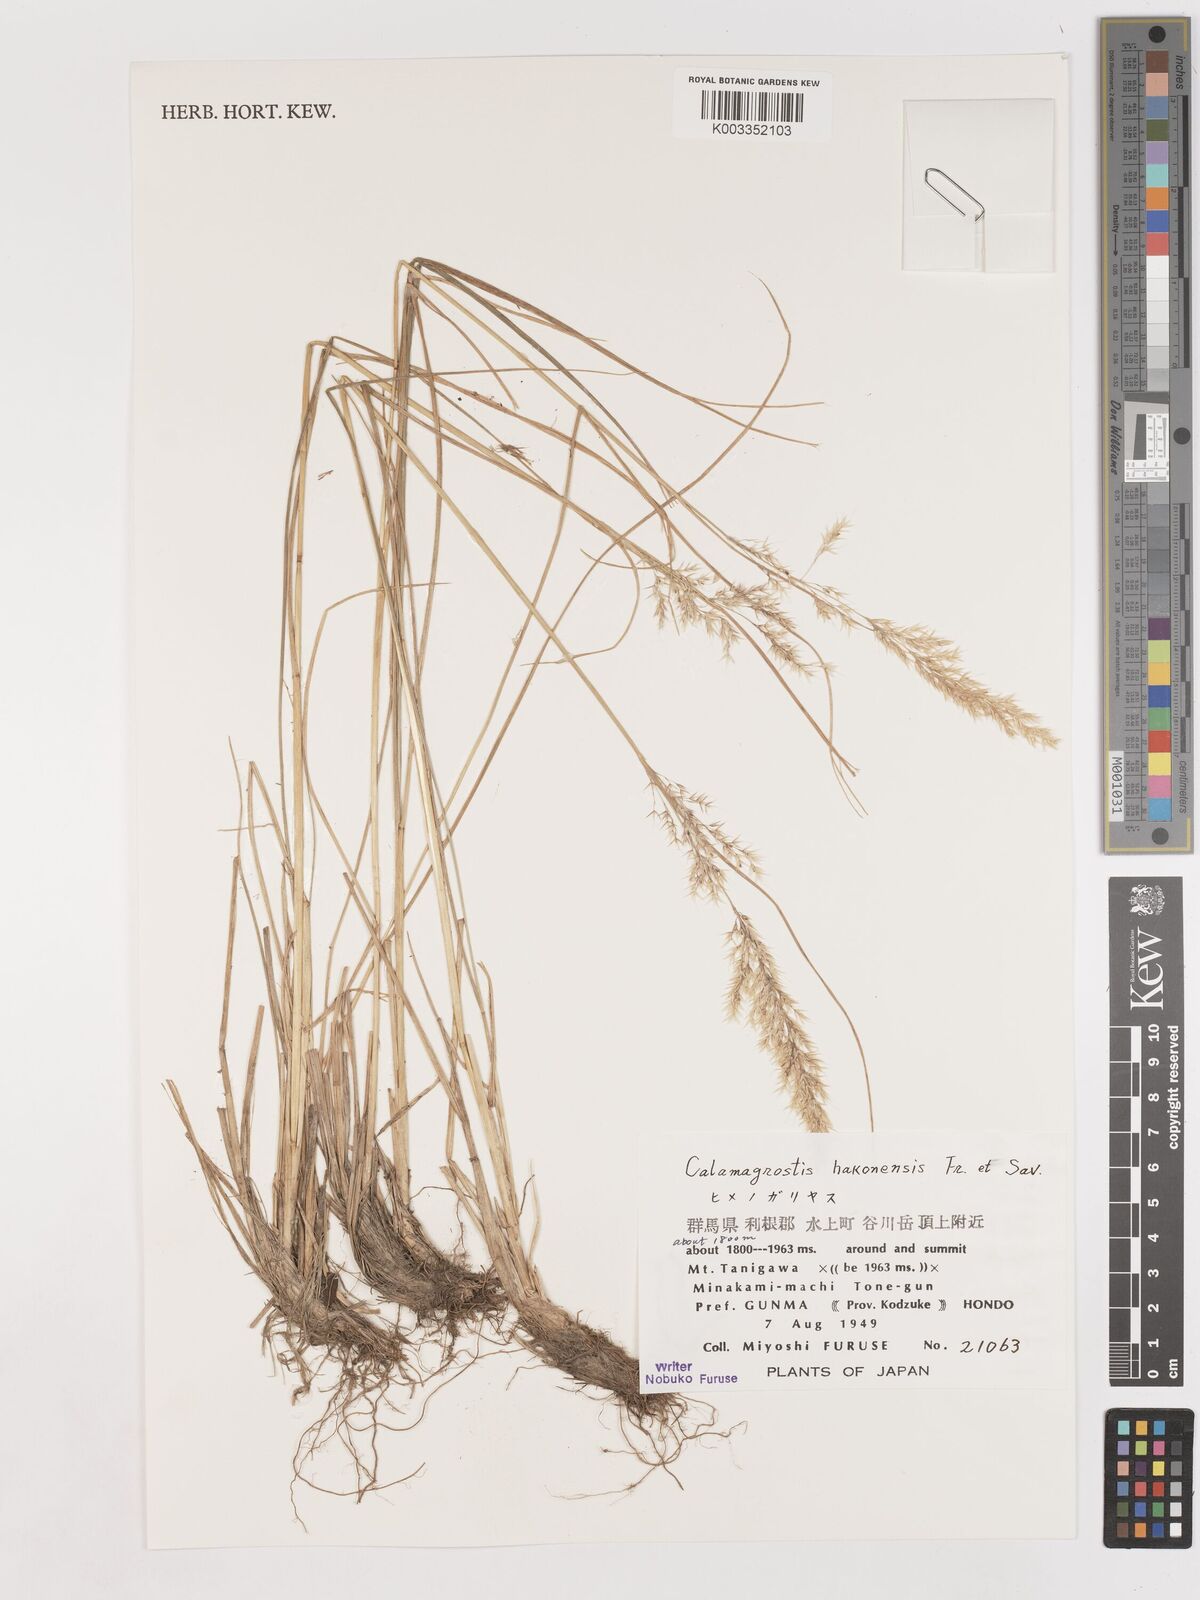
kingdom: Plantae
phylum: Tracheophyta
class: Liliopsida
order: Poales
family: Poaceae
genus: Calamagrostis
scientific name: Calamagrostis hakonensis
